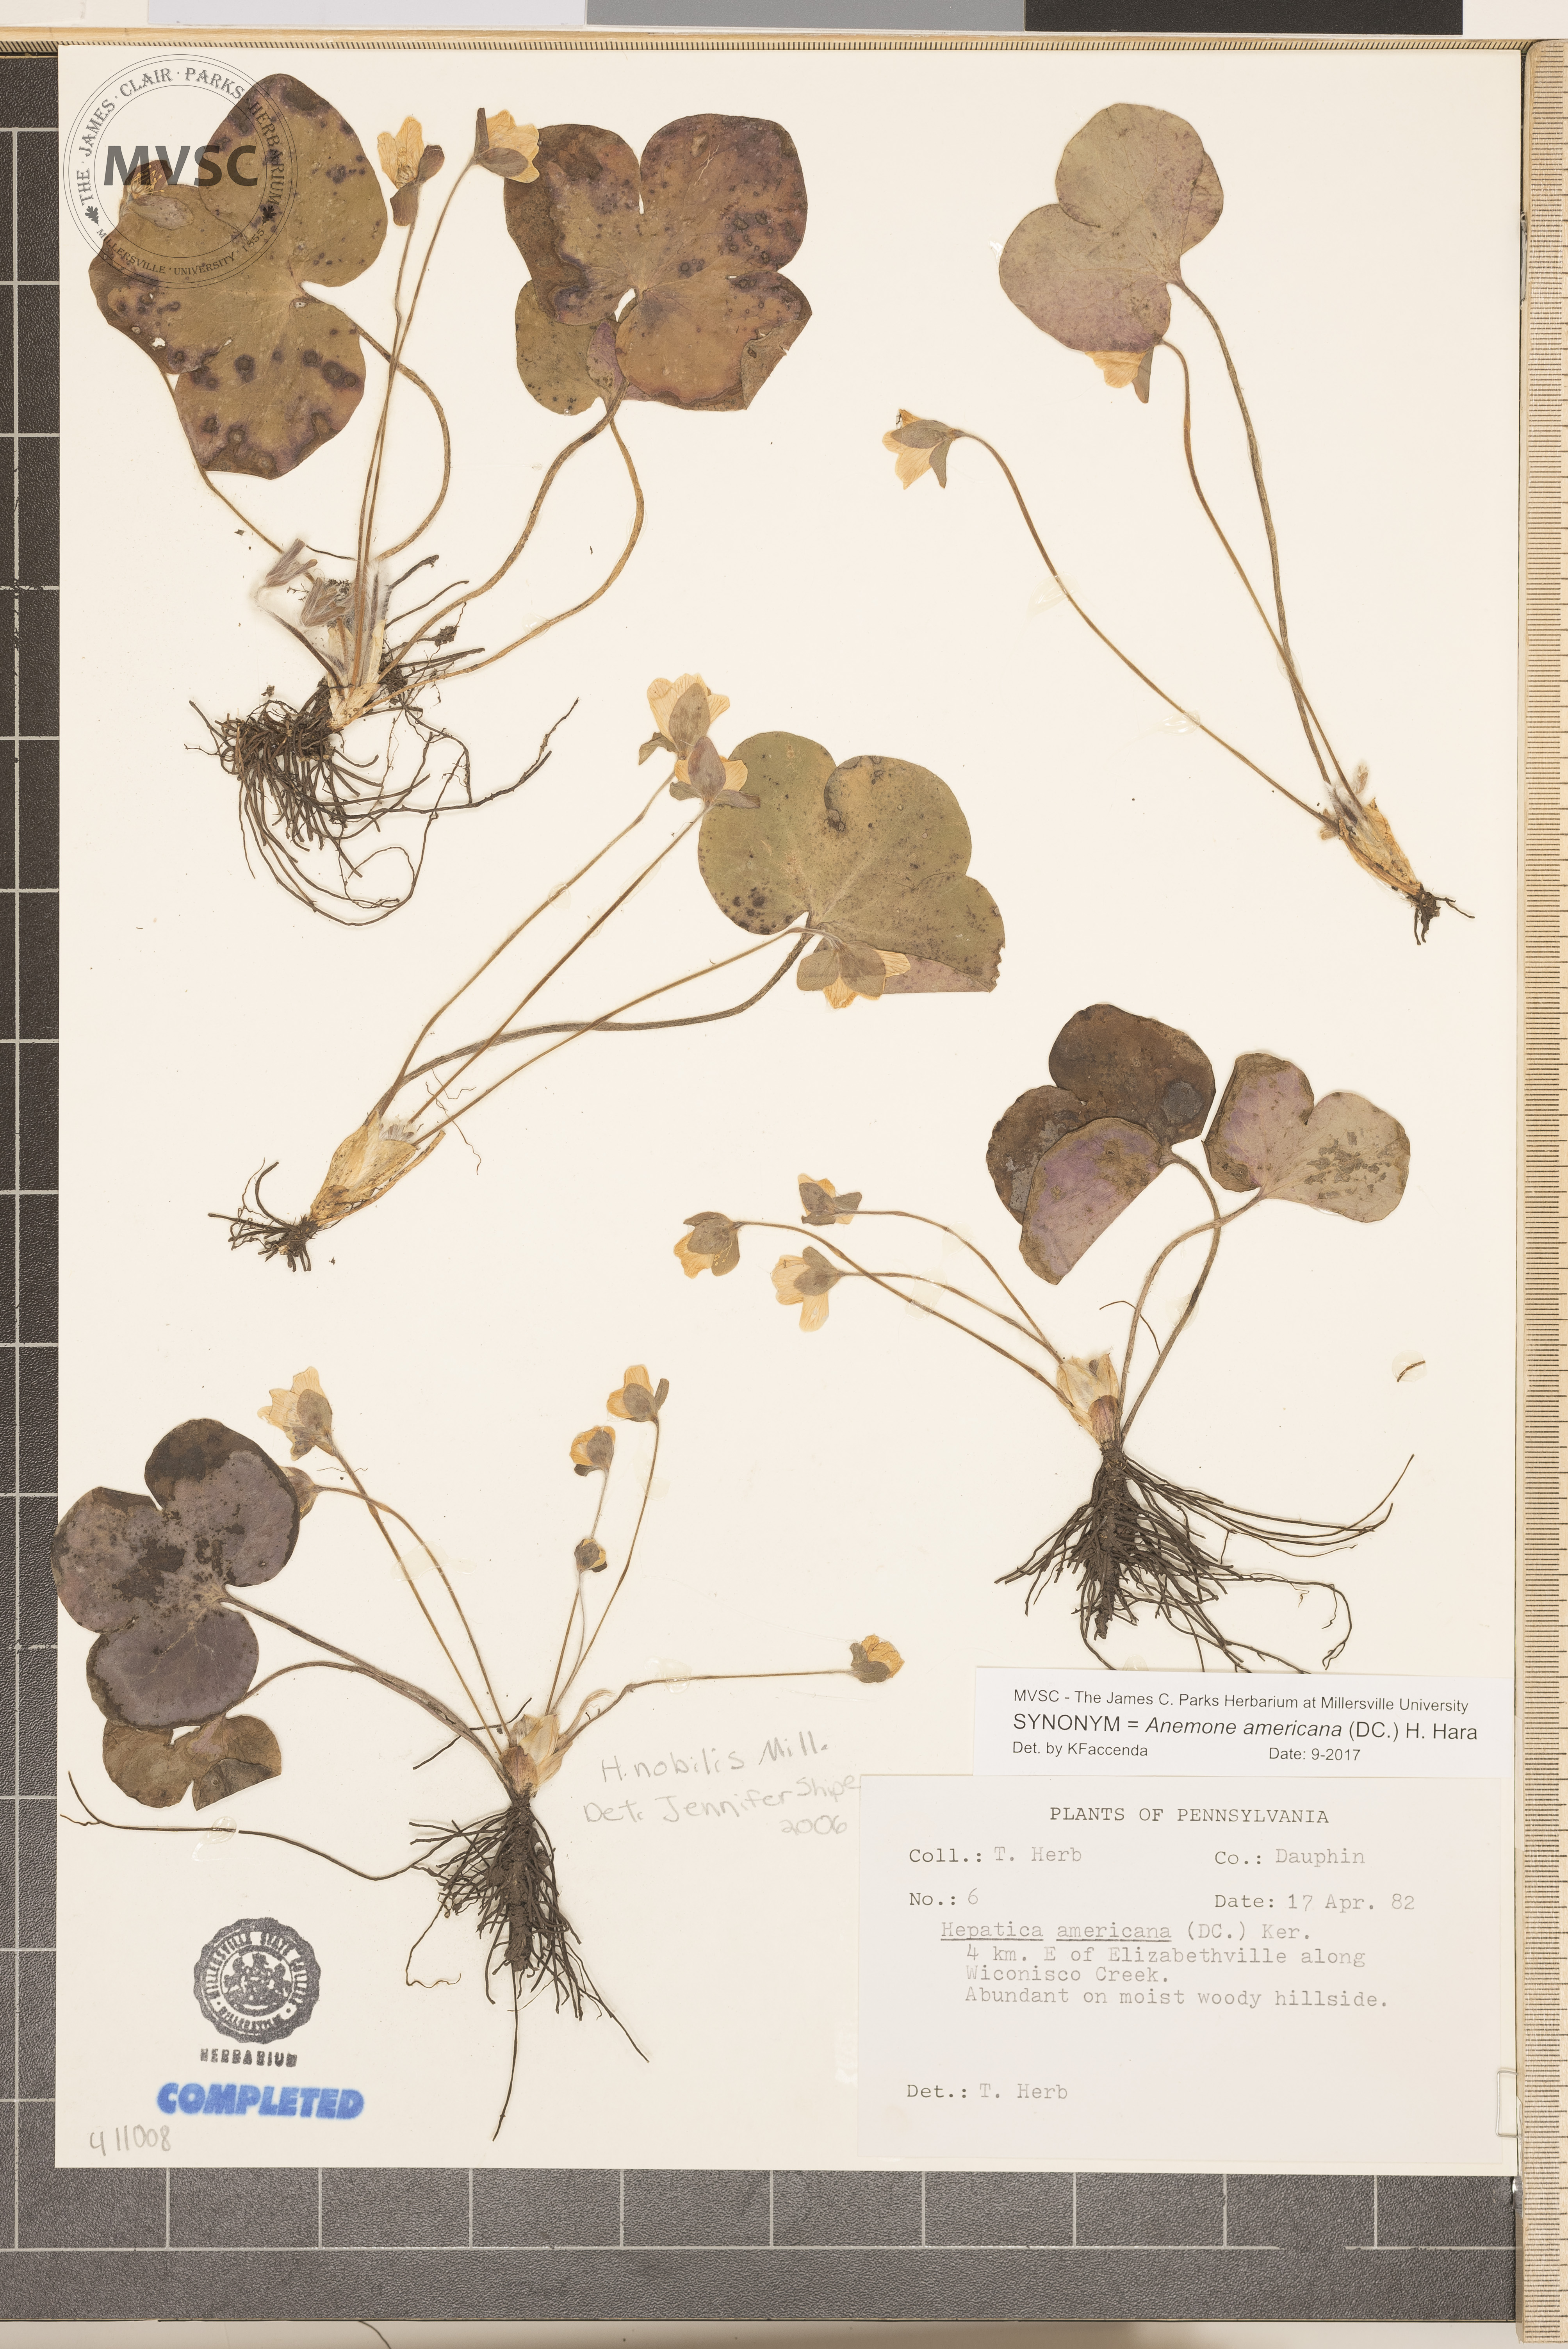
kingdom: Plantae
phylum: Tracheophyta
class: Magnoliopsida
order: Ranunculales
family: Ranunculaceae
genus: Hepatica
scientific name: Hepatica americana
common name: American hepatica
